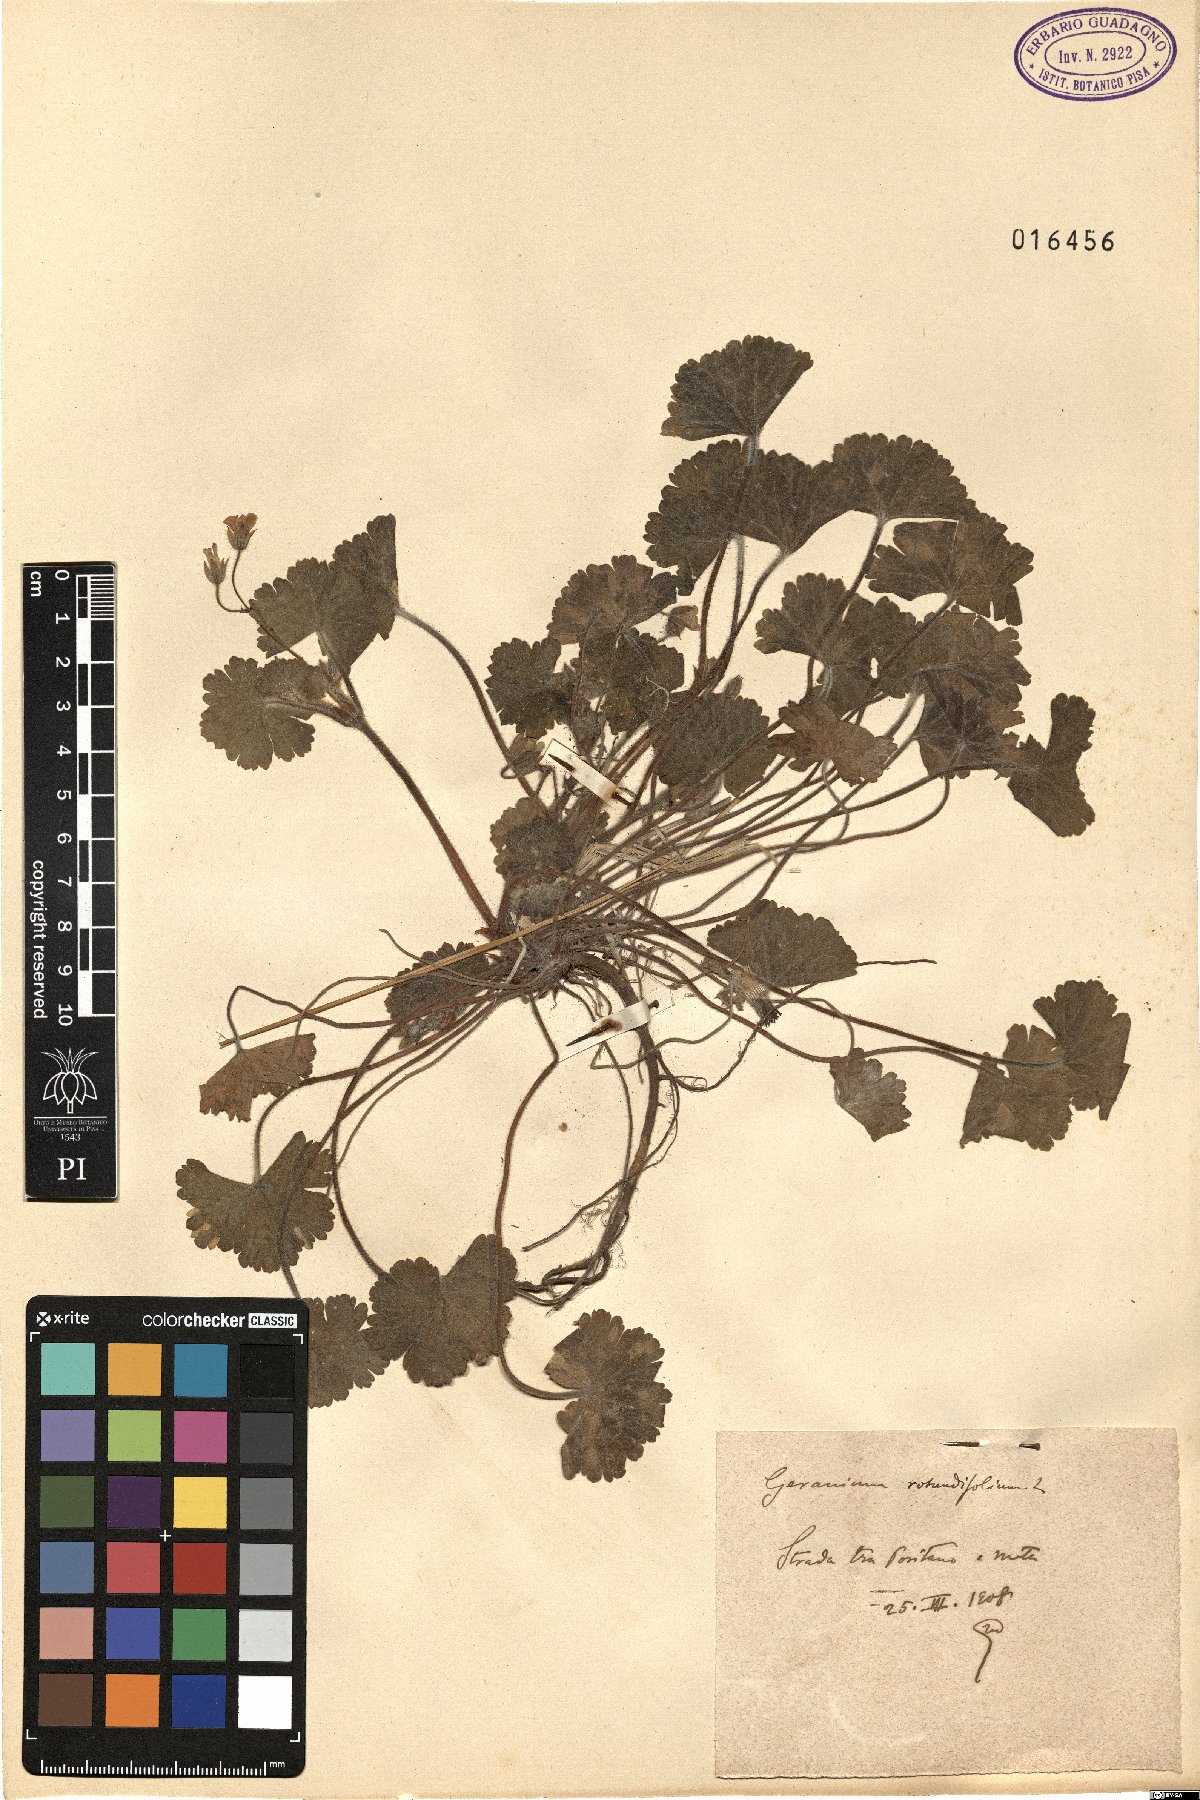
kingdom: Plantae
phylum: Tracheophyta
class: Magnoliopsida
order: Geraniales
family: Geraniaceae
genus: Geranium
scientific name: Geranium rotundifolium
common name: Round-leaved crane's-bill
